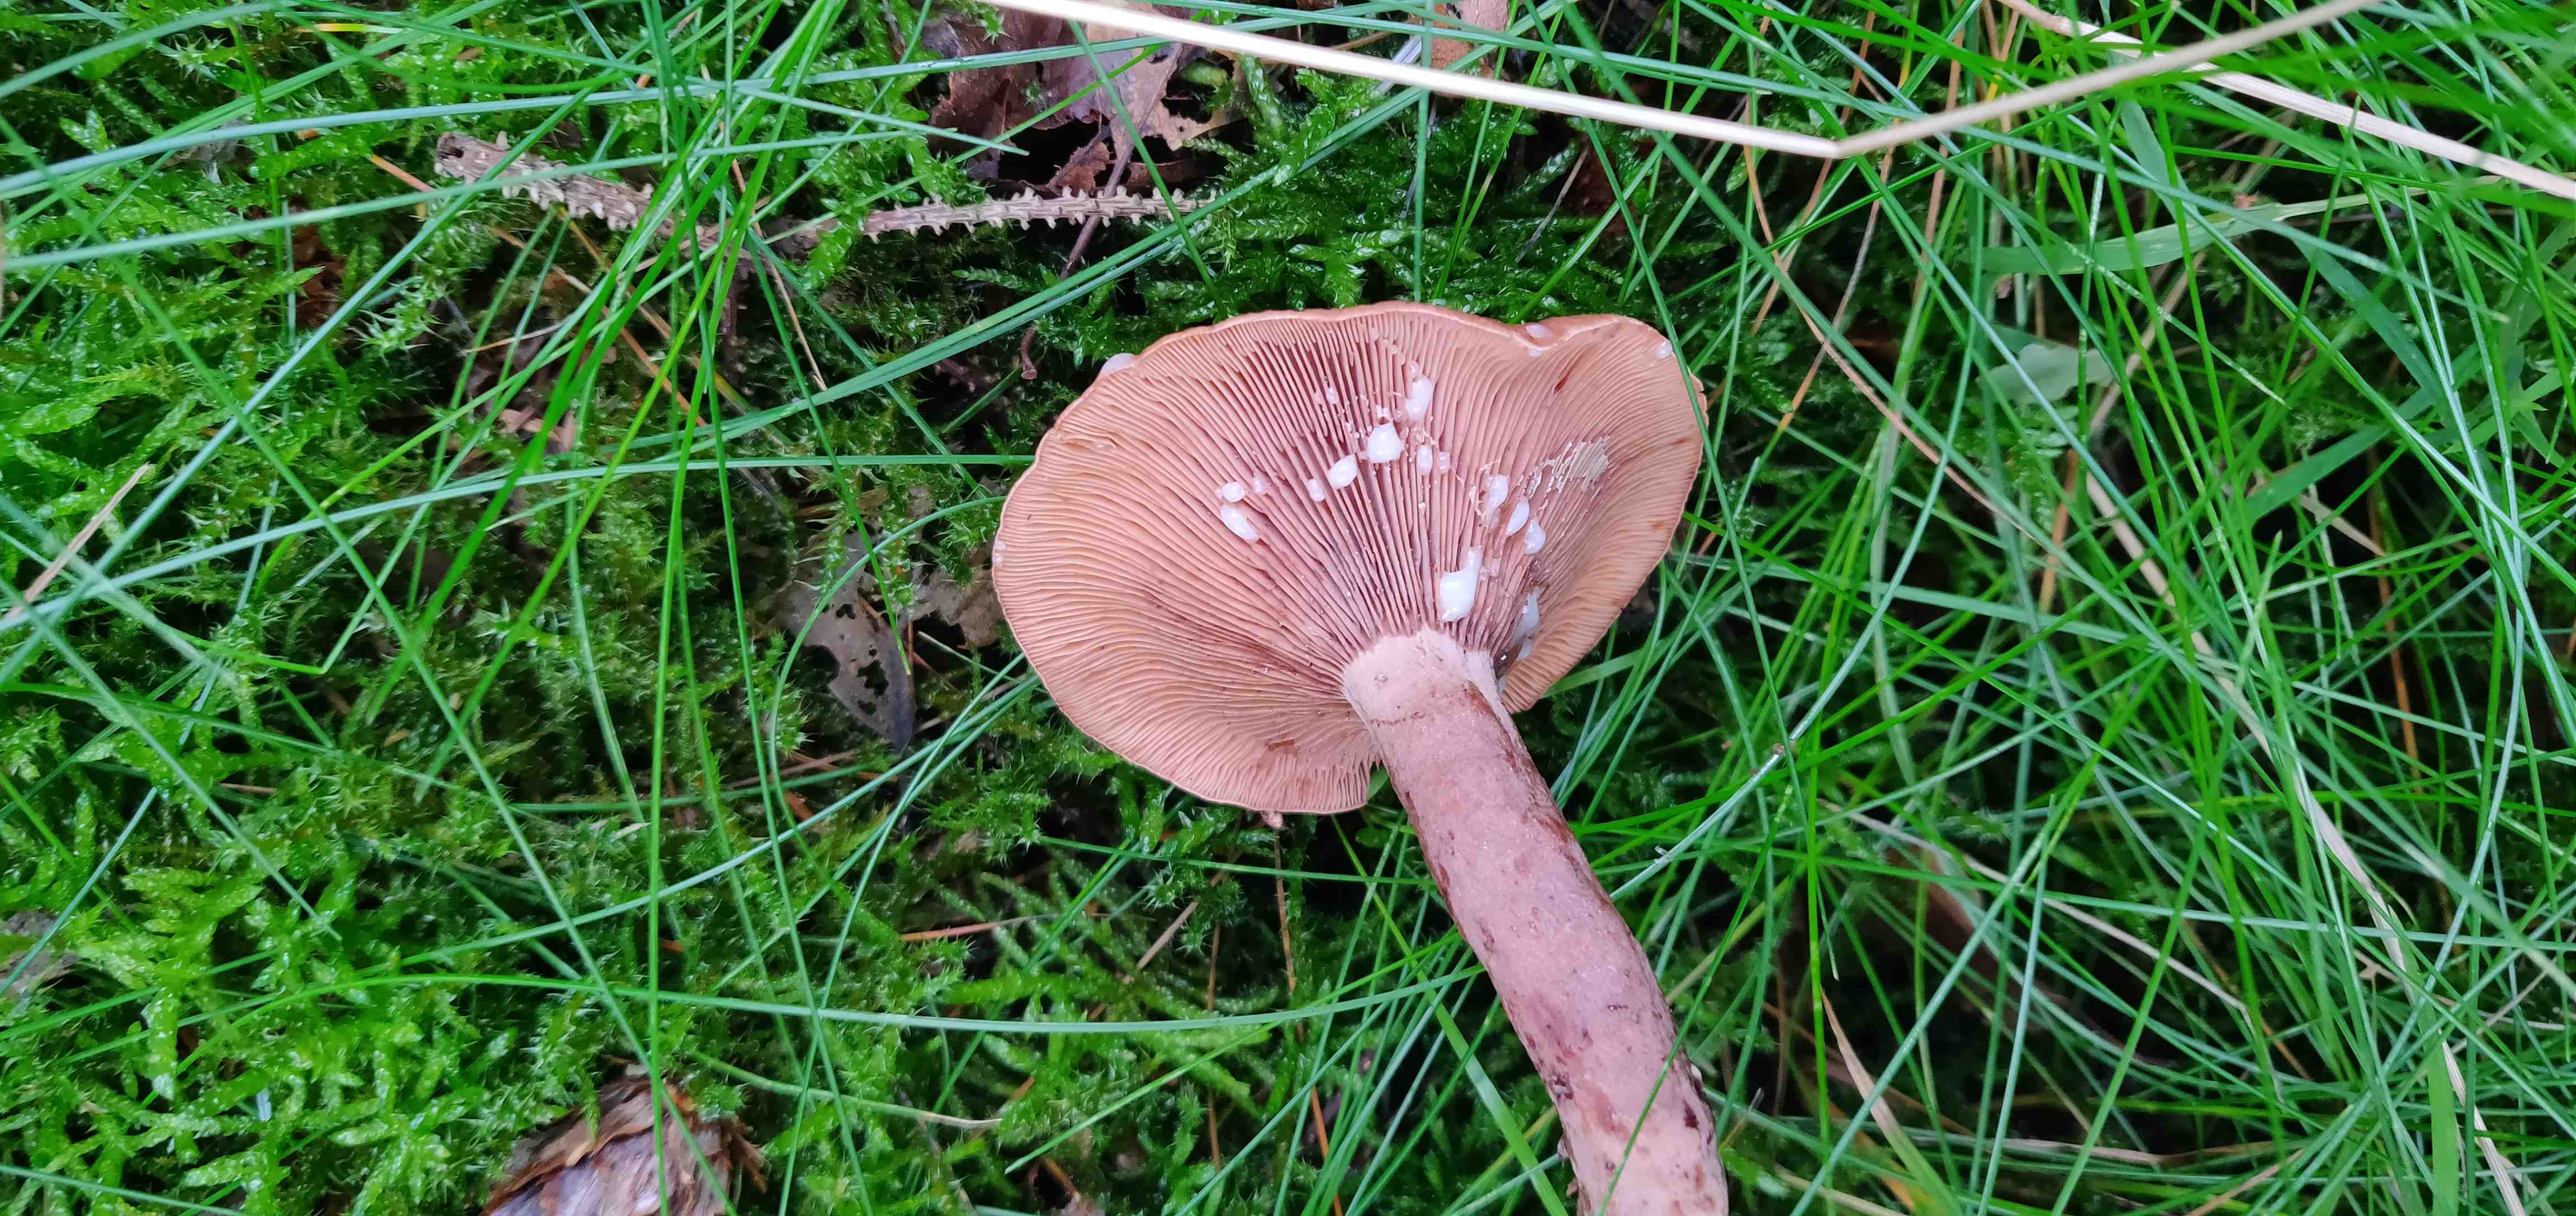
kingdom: Fungi
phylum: Basidiomycota
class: Agaricomycetes
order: Russulales
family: Russulaceae
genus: Lactarius
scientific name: Lactarius
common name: mælkehat
